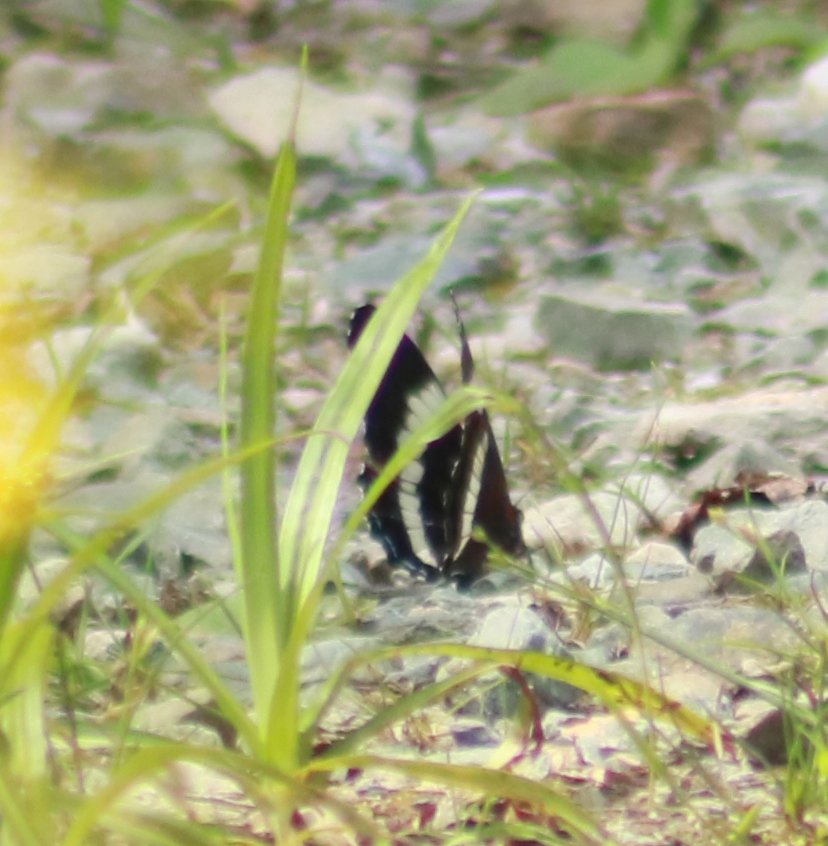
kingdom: Animalia
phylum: Arthropoda
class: Insecta
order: Lepidoptera
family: Nymphalidae
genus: Limenitis
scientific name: Limenitis arthemis
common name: Red-spotted Admiral
